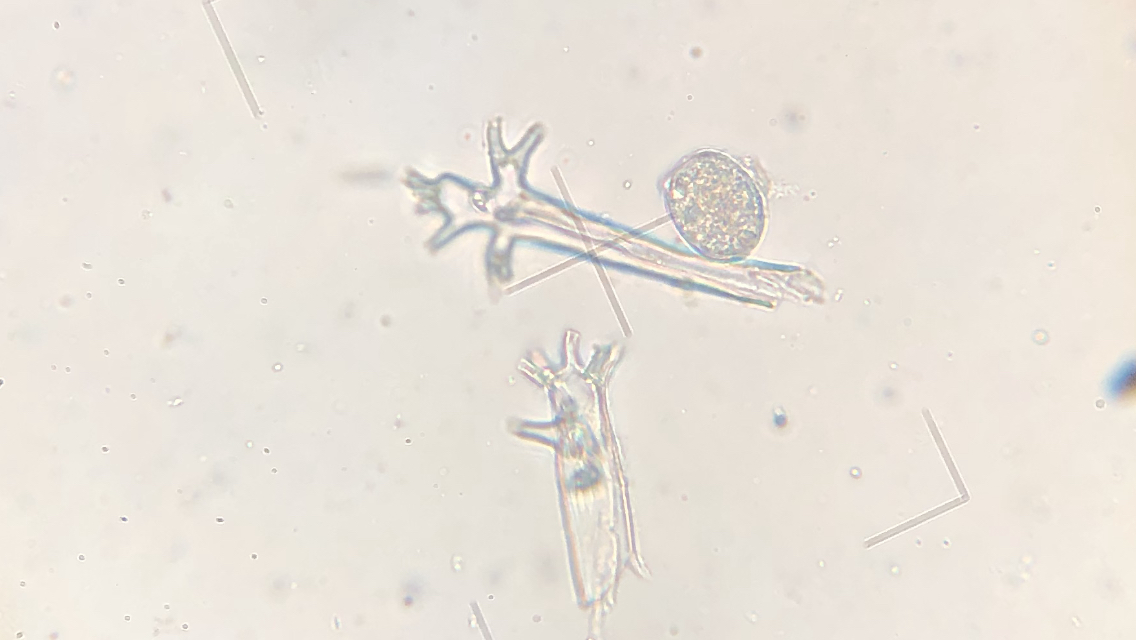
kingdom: Chromista
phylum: Oomycota
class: Peronosporea
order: Peronosporales
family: Peronosporaceae
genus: Plasmoverna
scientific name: Plasmoverna pygmaea
